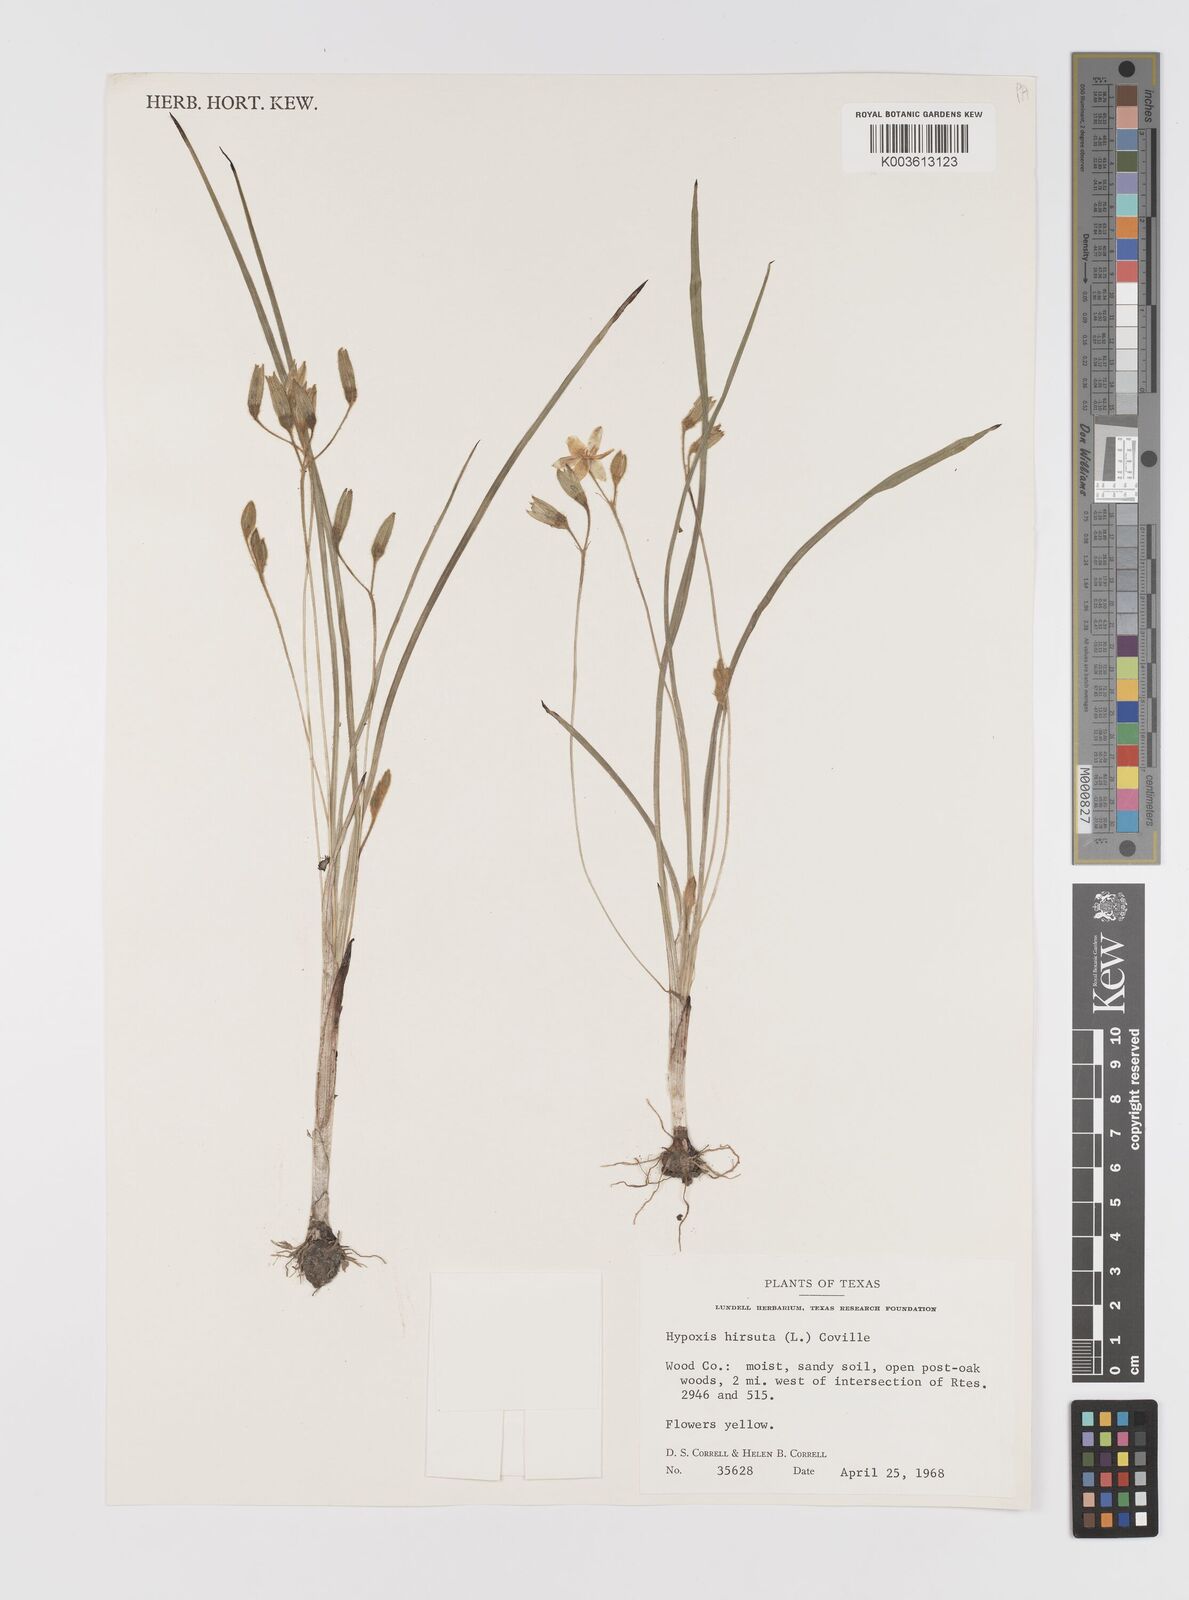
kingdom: Plantae
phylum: Tracheophyta
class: Liliopsida
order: Asparagales
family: Hypoxidaceae
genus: Hypoxis
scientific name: Hypoxis hirsuta
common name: Common goldstar
